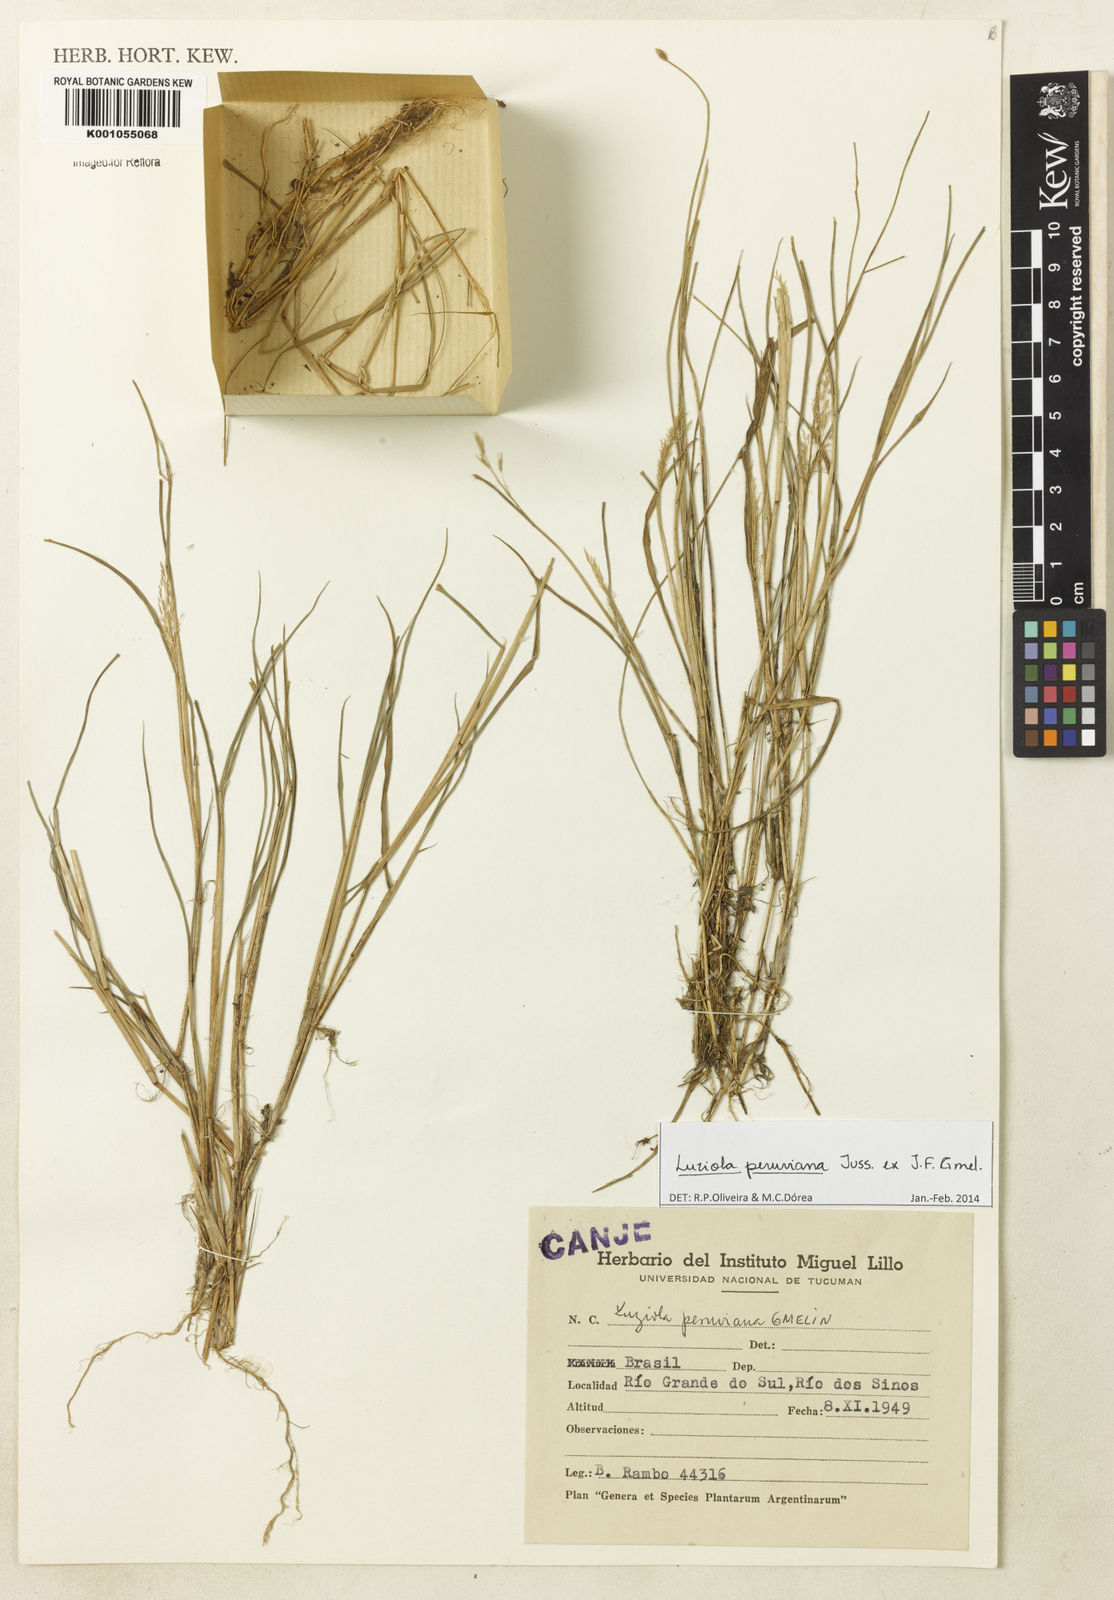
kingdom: Plantae
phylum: Tracheophyta
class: Liliopsida
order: Poales
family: Poaceae
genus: Luziola
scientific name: Luziola peruviana
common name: Peruvian watergrass
